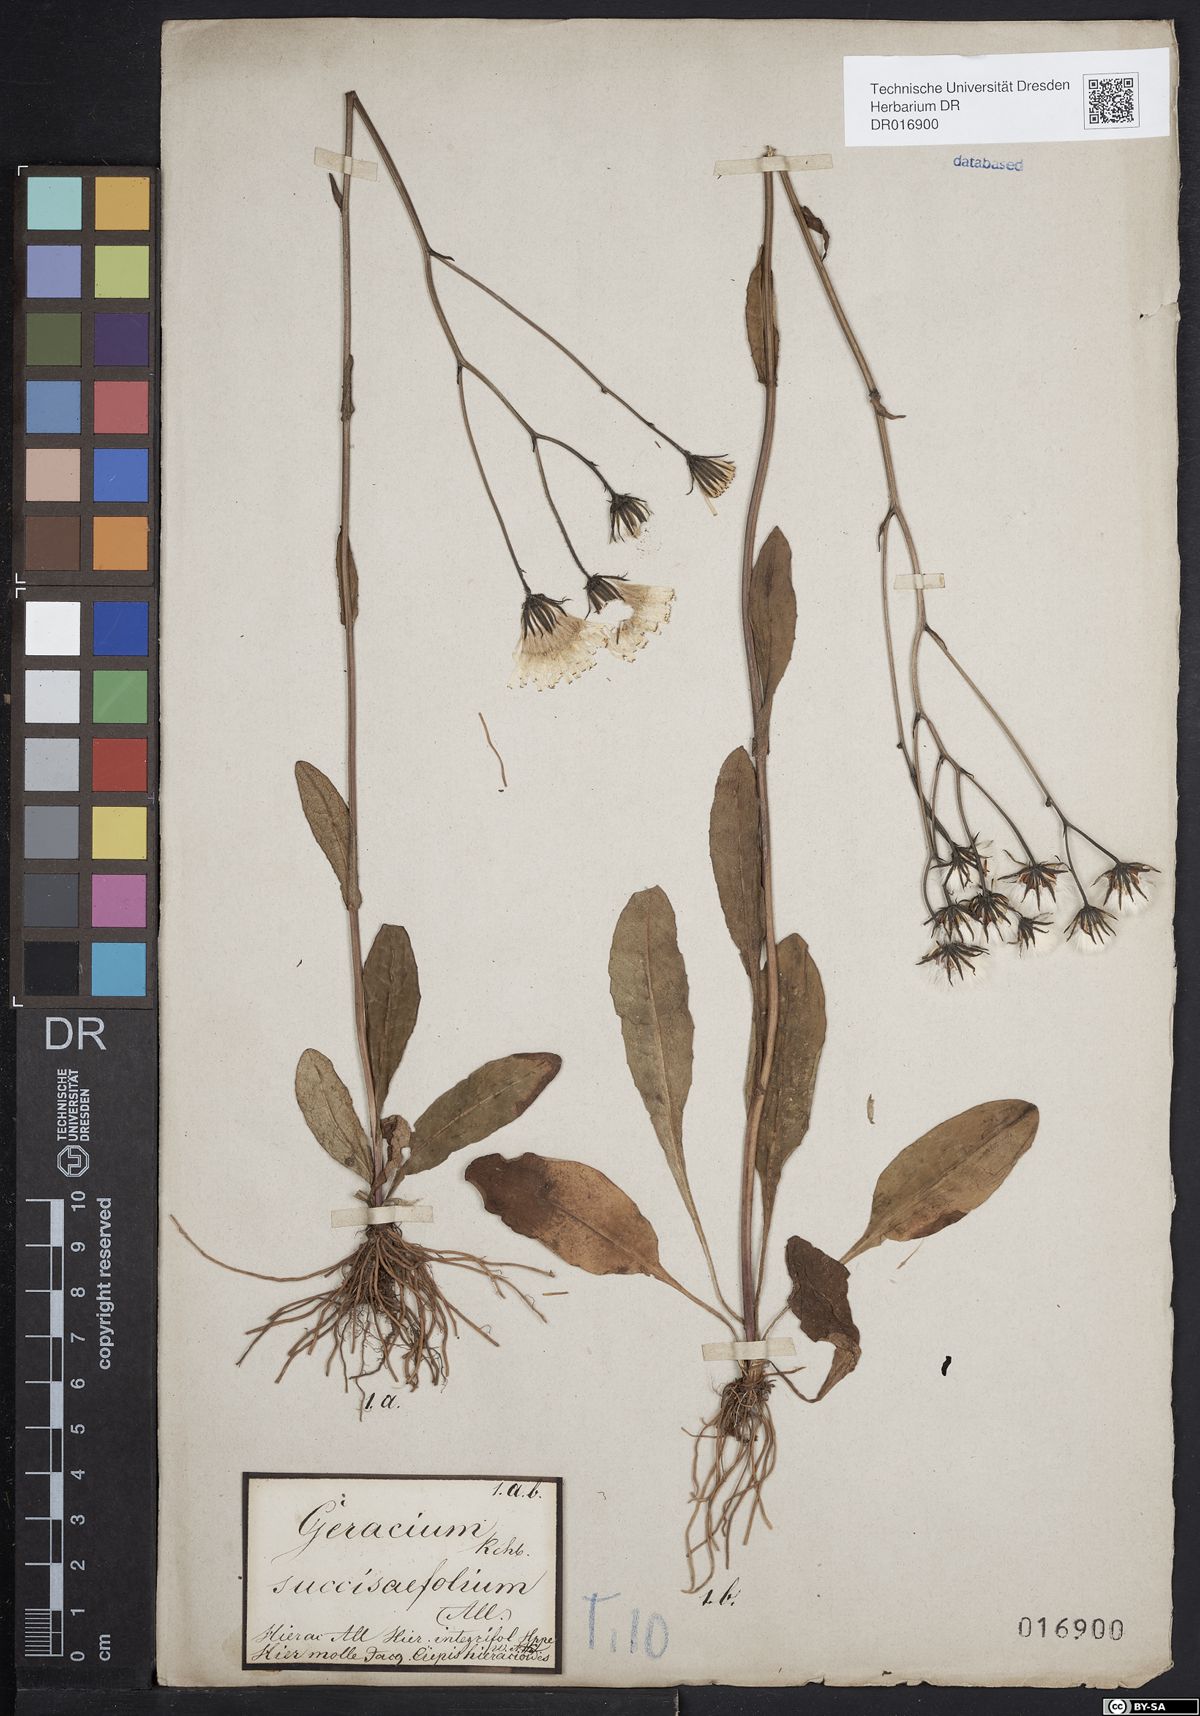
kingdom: Plantae
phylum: Tracheophyta
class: Magnoliopsida
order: Asterales
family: Asteraceae
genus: Crepis
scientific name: Crepis mollis
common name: Northern hawk's-beard
